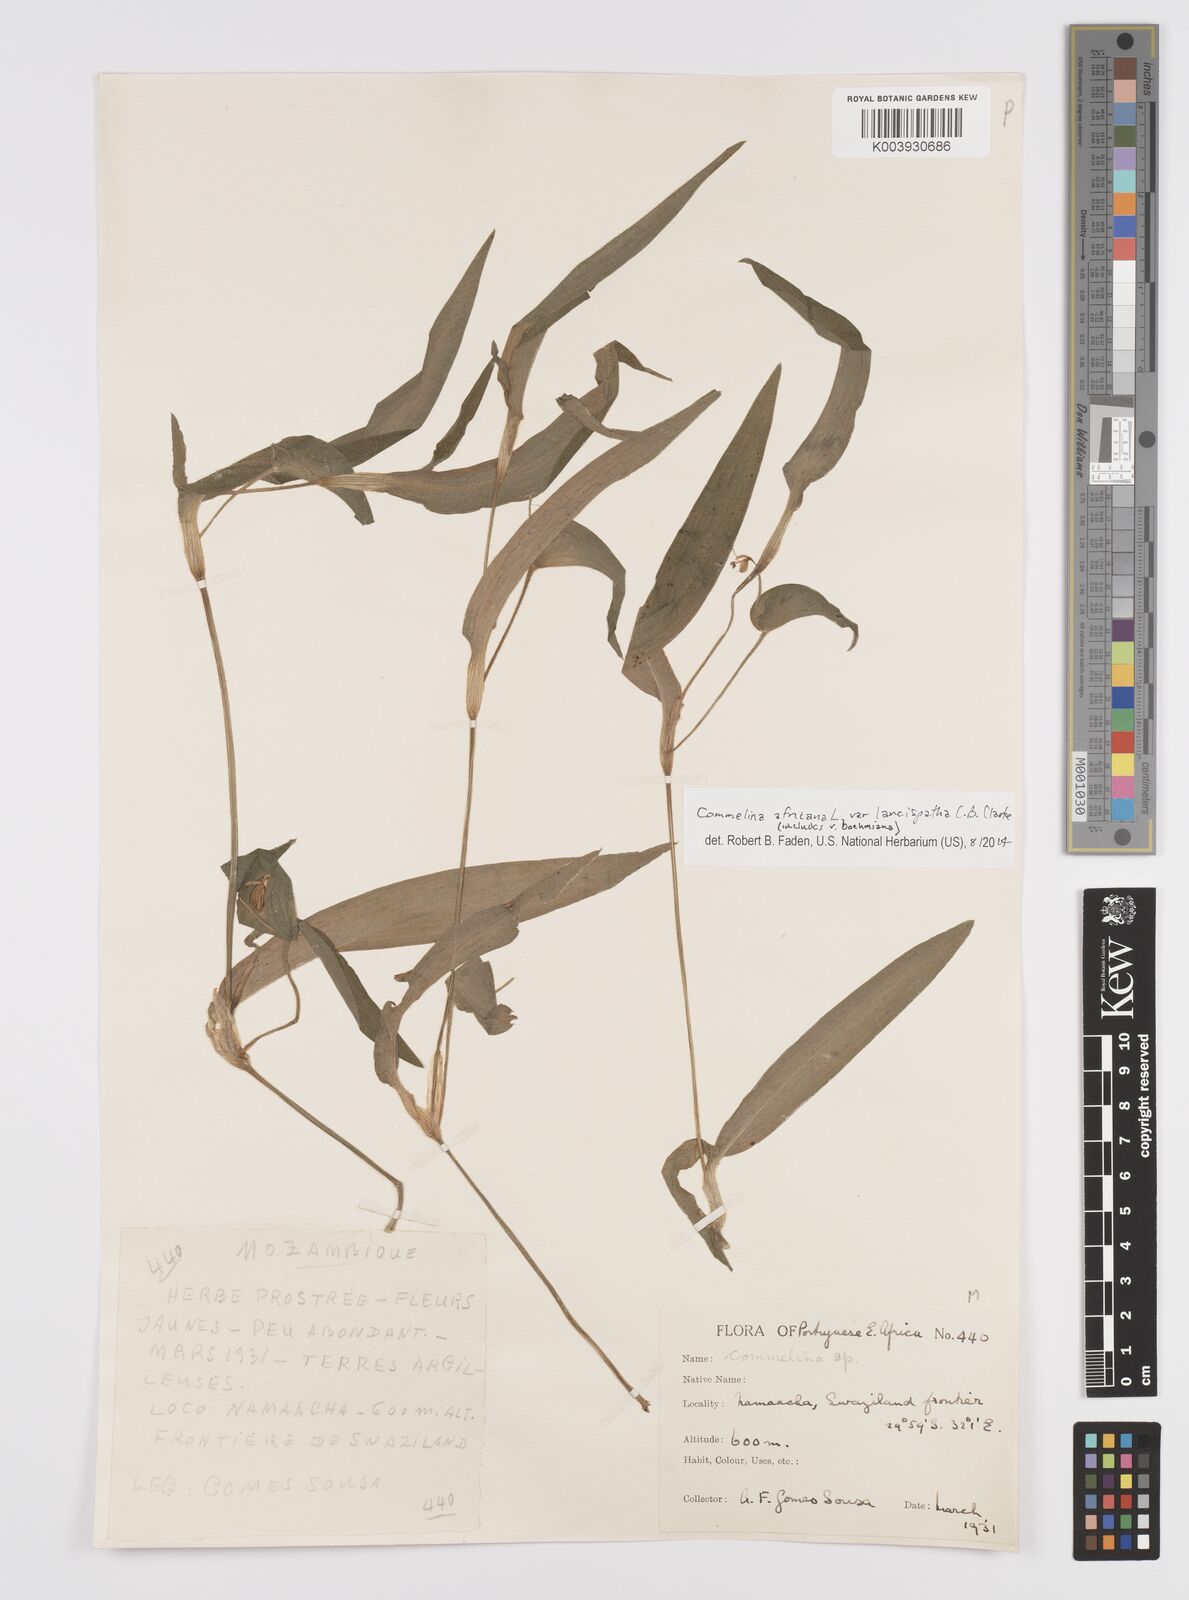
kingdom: Plantae
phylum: Tracheophyta
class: Liliopsida
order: Commelinales
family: Commelinaceae
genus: Commelina
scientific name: Commelina africana
